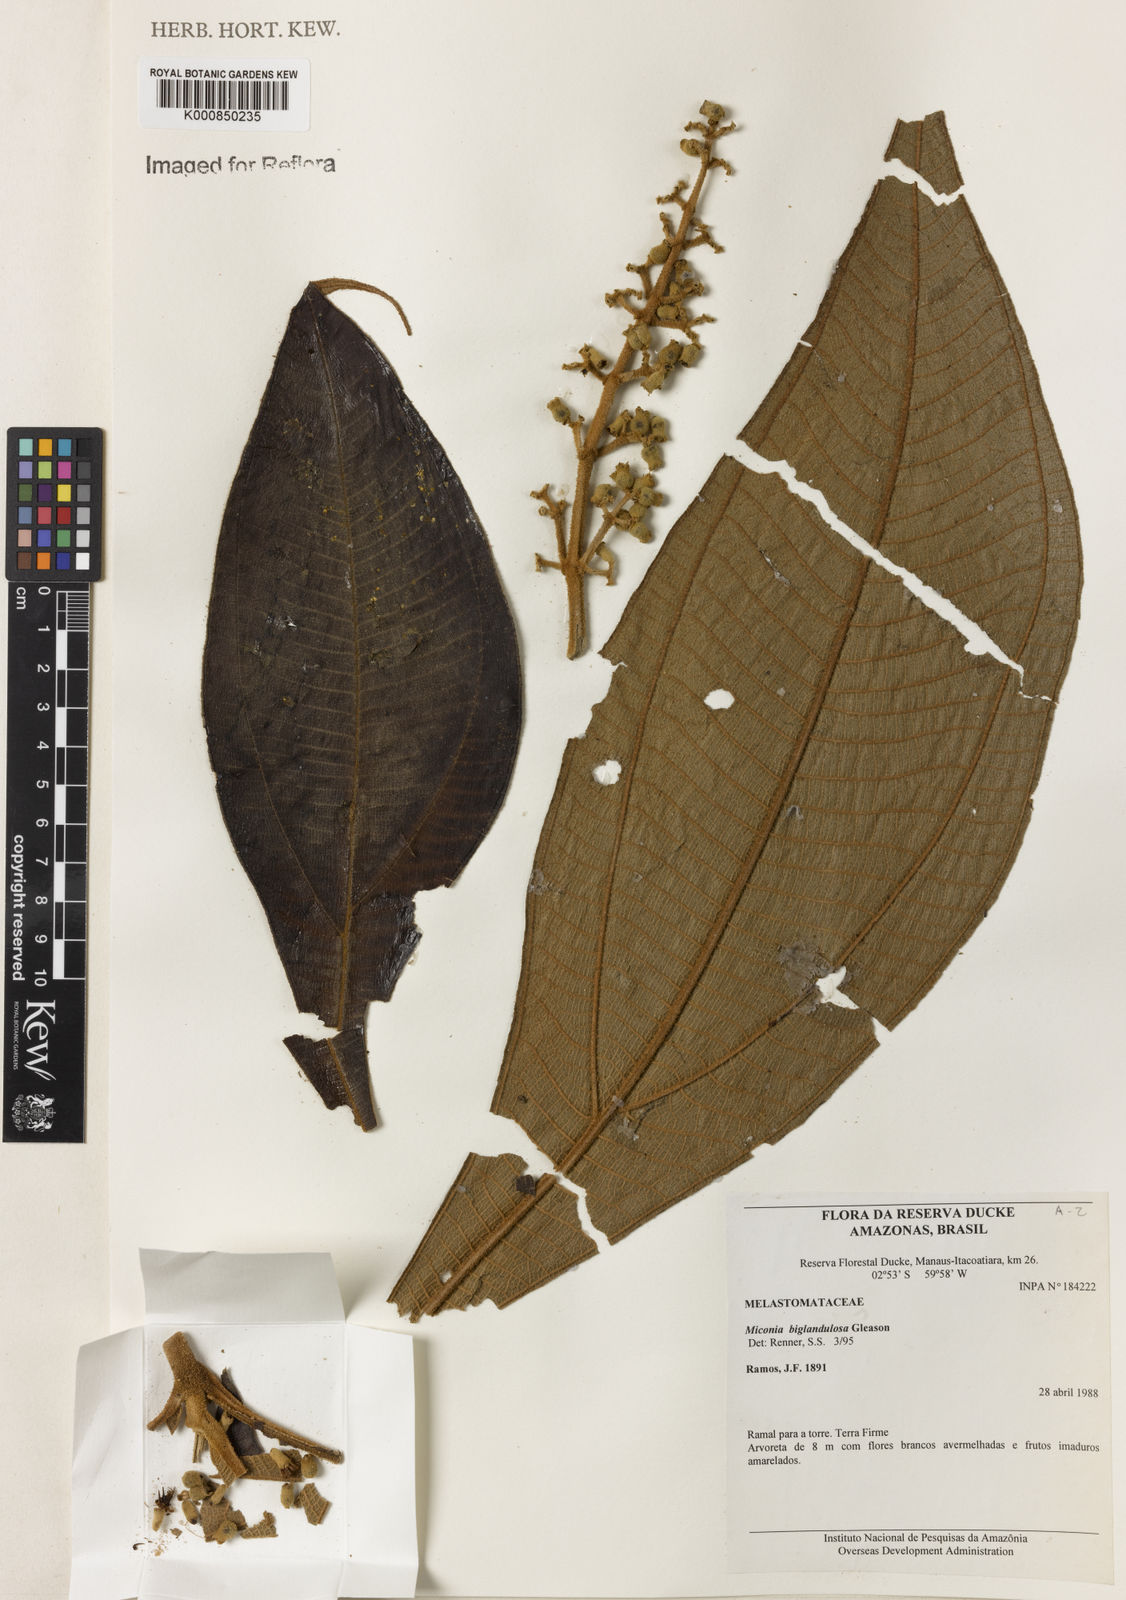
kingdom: Plantae
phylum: Tracheophyta
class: Magnoliopsida
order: Myrtales
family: Melastomataceae
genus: Miconia
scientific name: Miconia biglandulosa
